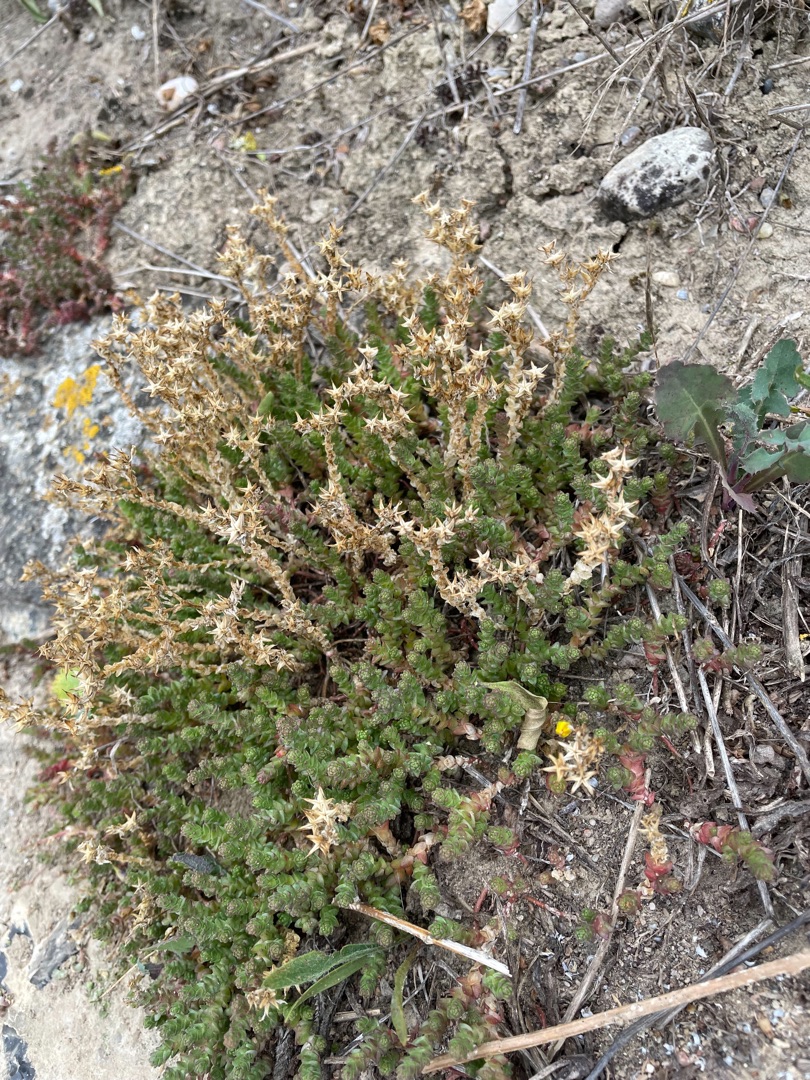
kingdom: Plantae
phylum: Tracheophyta
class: Magnoliopsida
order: Saxifragales
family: Crassulaceae
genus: Sedum
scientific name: Sedum acre
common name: Bidende stenurt
